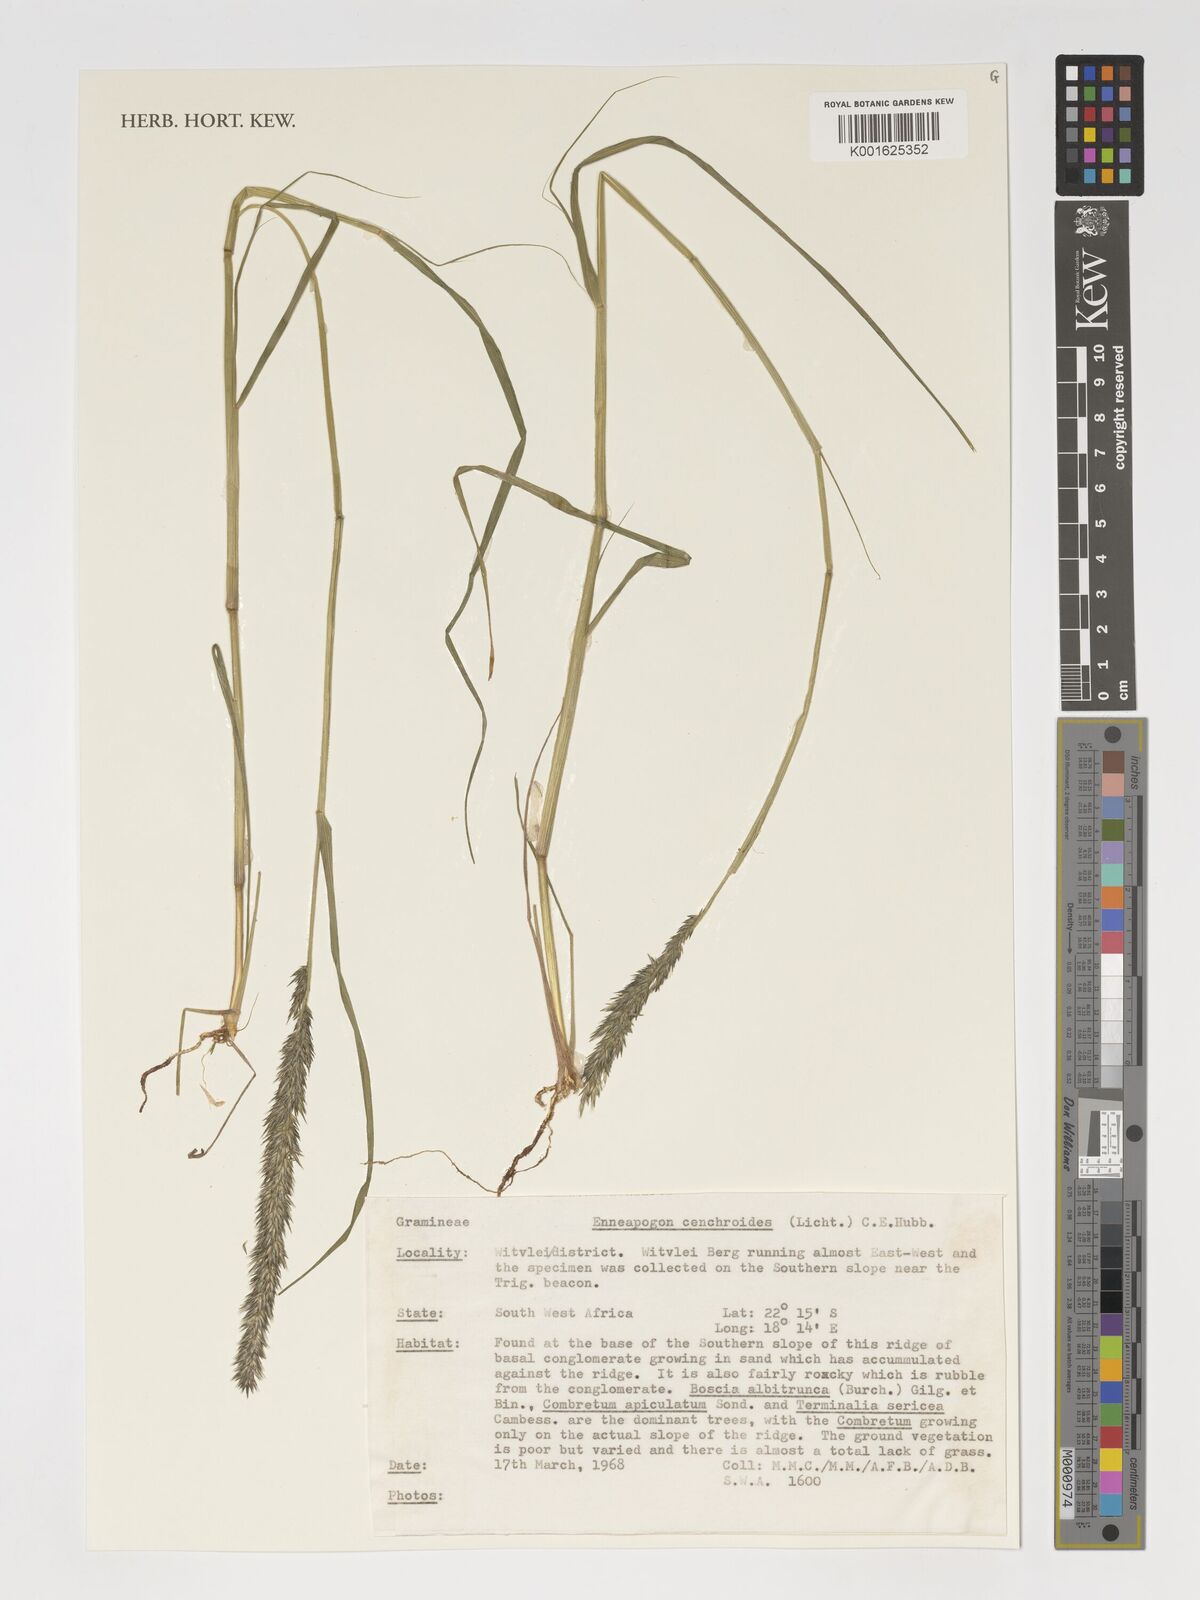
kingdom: Plantae
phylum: Tracheophyta
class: Liliopsida
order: Poales
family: Poaceae
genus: Enneapogon
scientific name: Enneapogon cenchroides
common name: Soft feather pappusgrass
